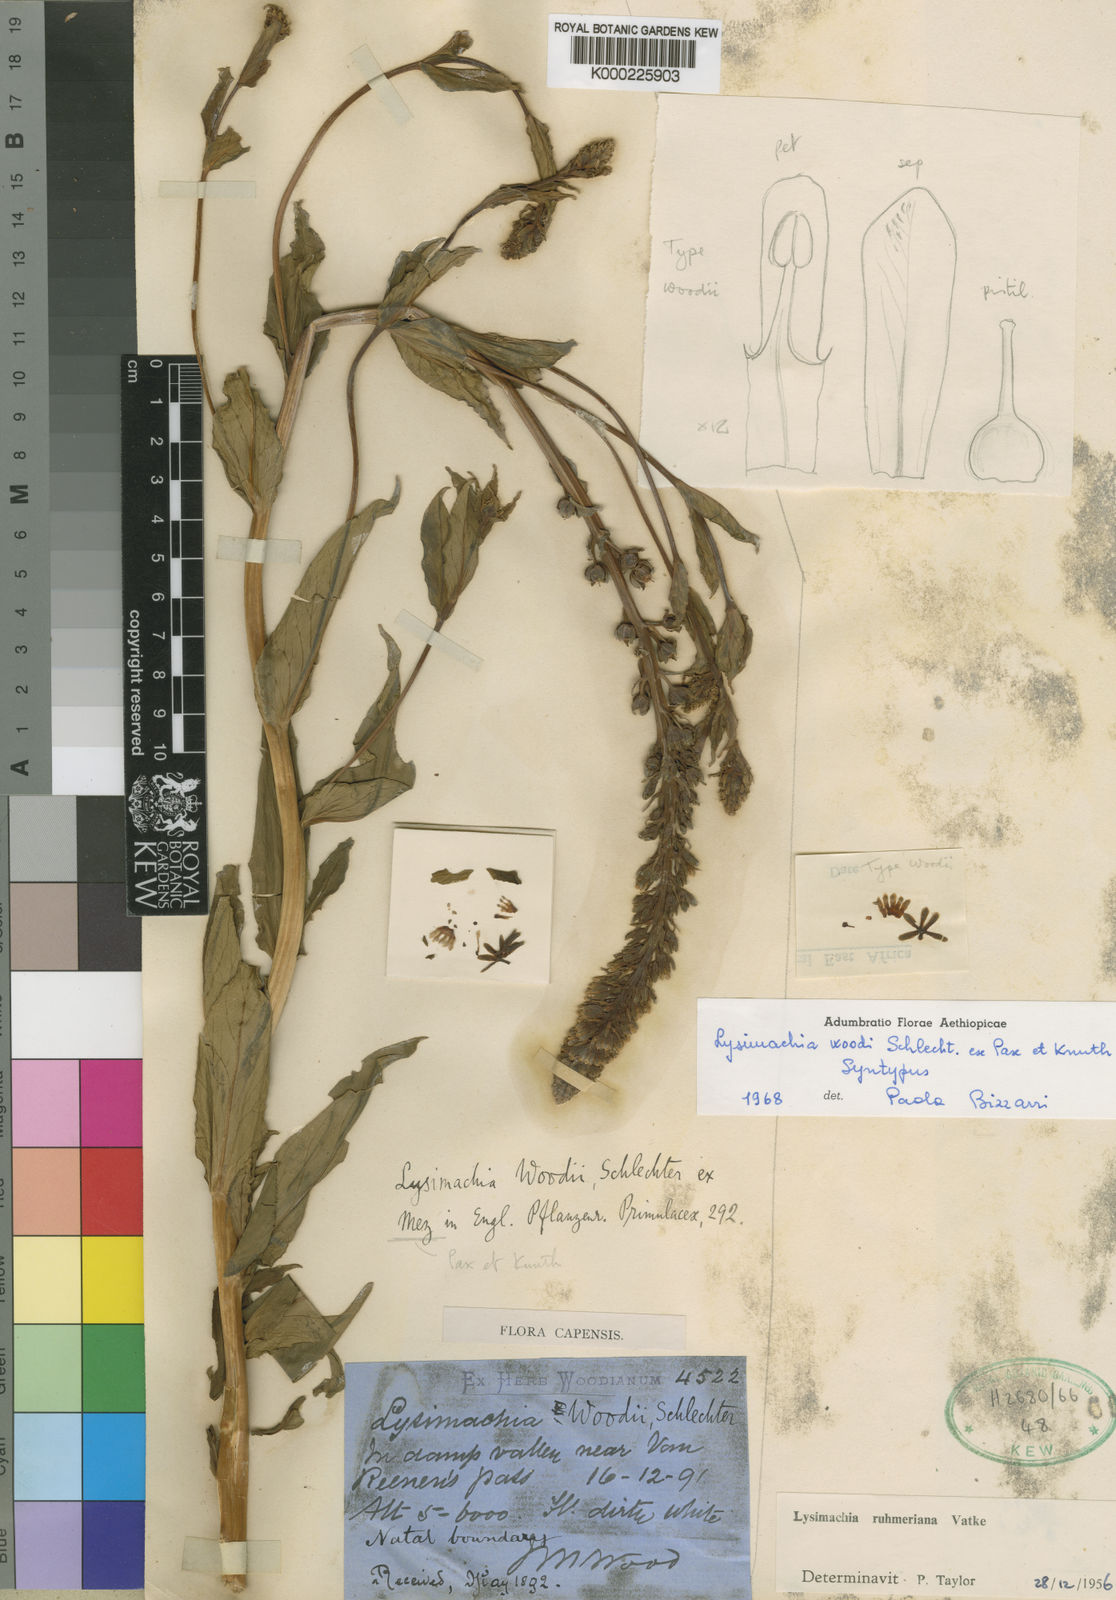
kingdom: Plantae
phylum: Tracheophyta
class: Magnoliopsida
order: Ericales
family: Primulaceae
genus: Lysimachia
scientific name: Lysimachia ruhmeriana
